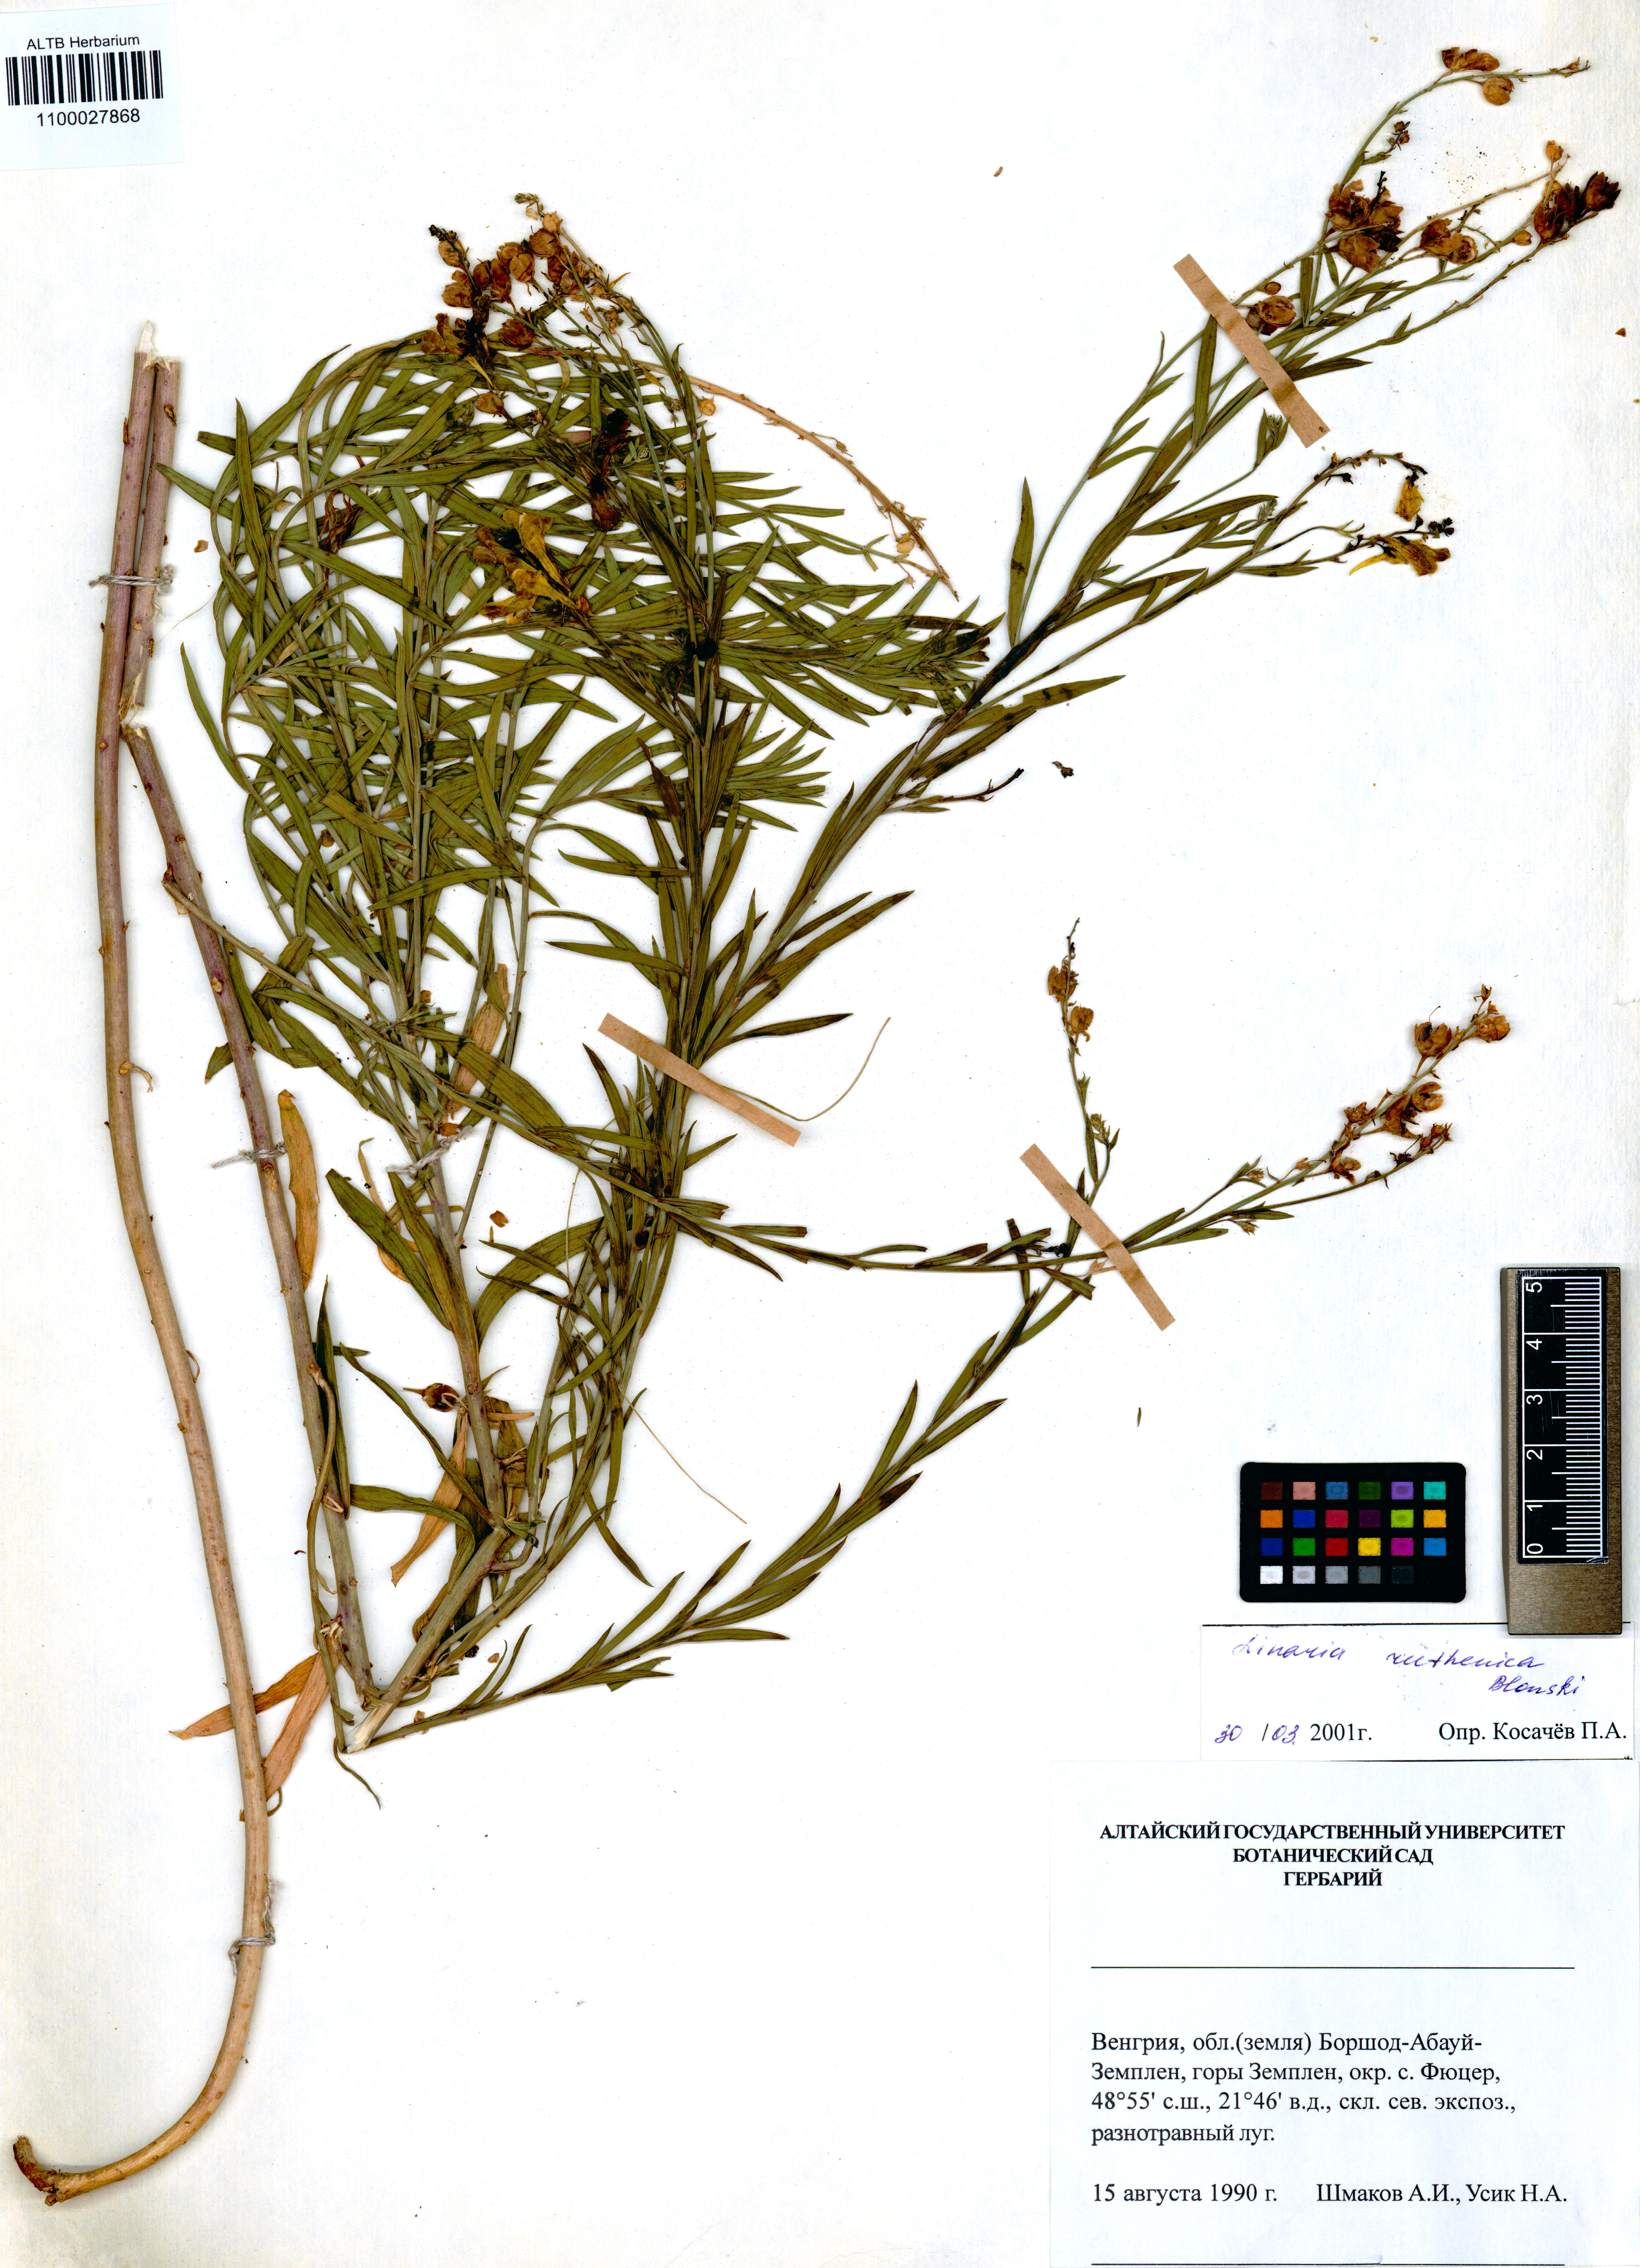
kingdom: Plantae
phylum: Tracheophyta
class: Magnoliopsida
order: Lamiales
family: Plantaginaceae
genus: Linaria
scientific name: Linaria biebersteinii
